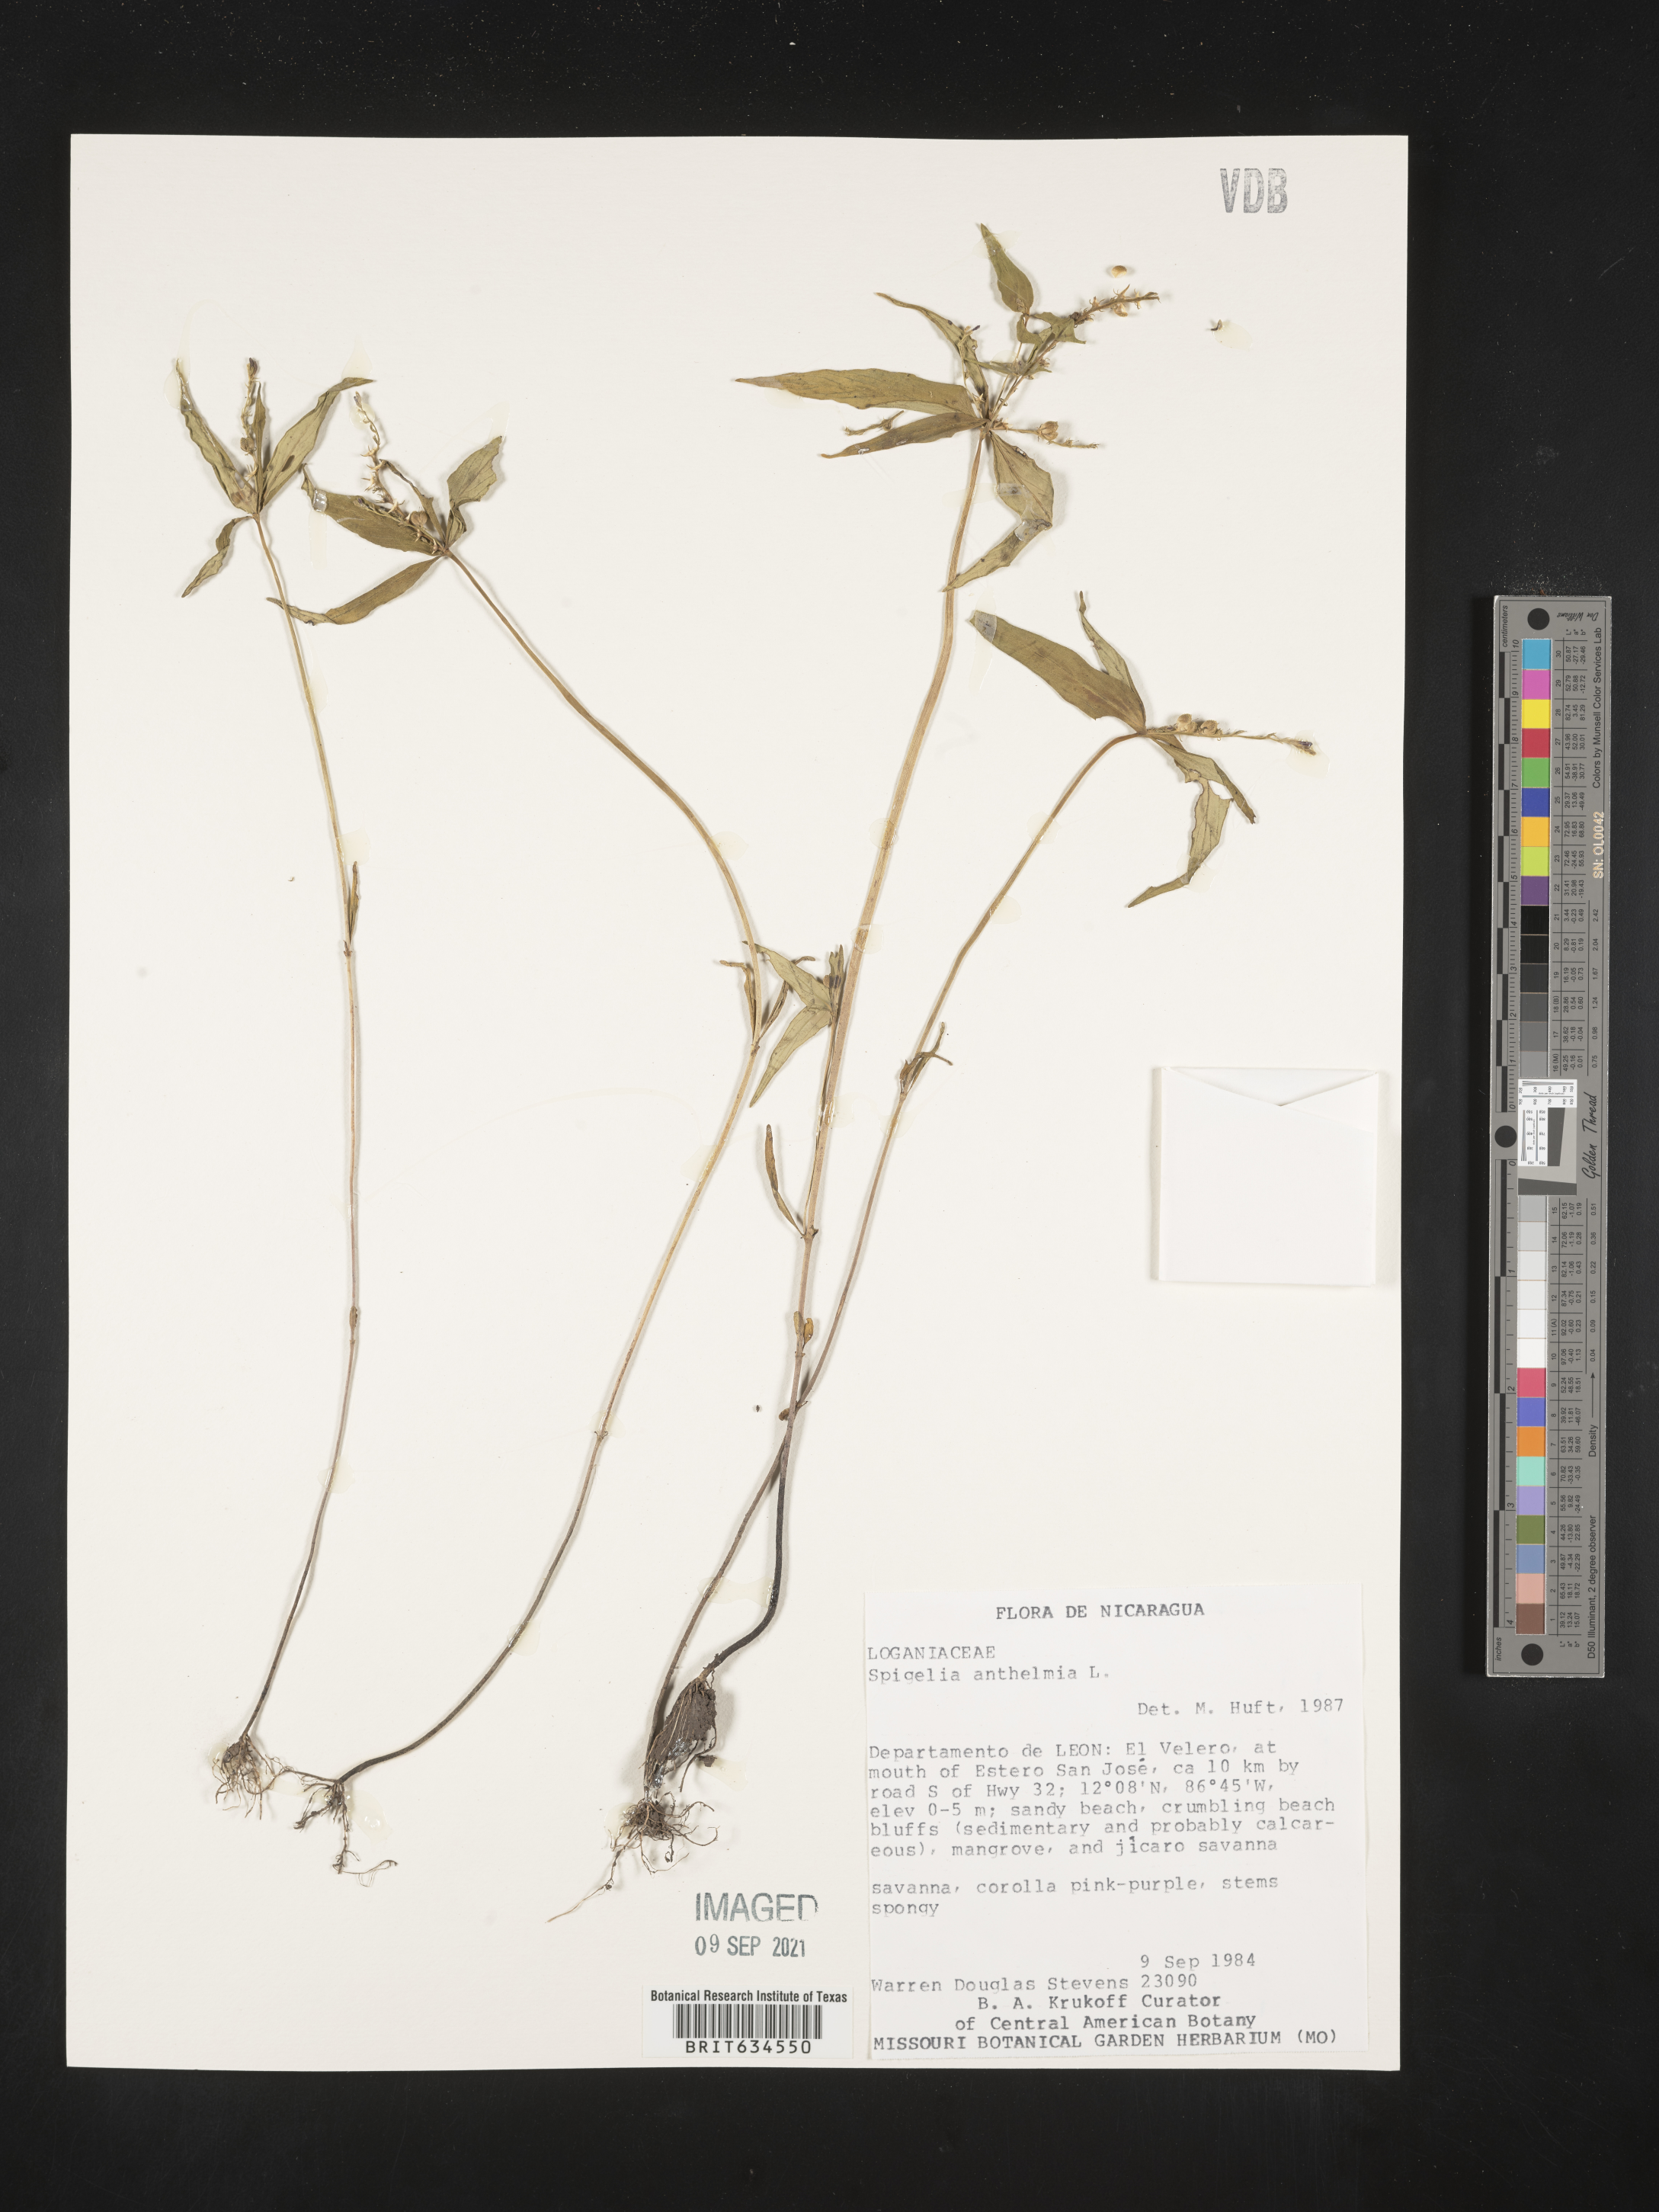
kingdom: Plantae
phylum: Tracheophyta
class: Magnoliopsida
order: Gentianales
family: Loganiaceae
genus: Spigelia
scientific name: Spigelia
